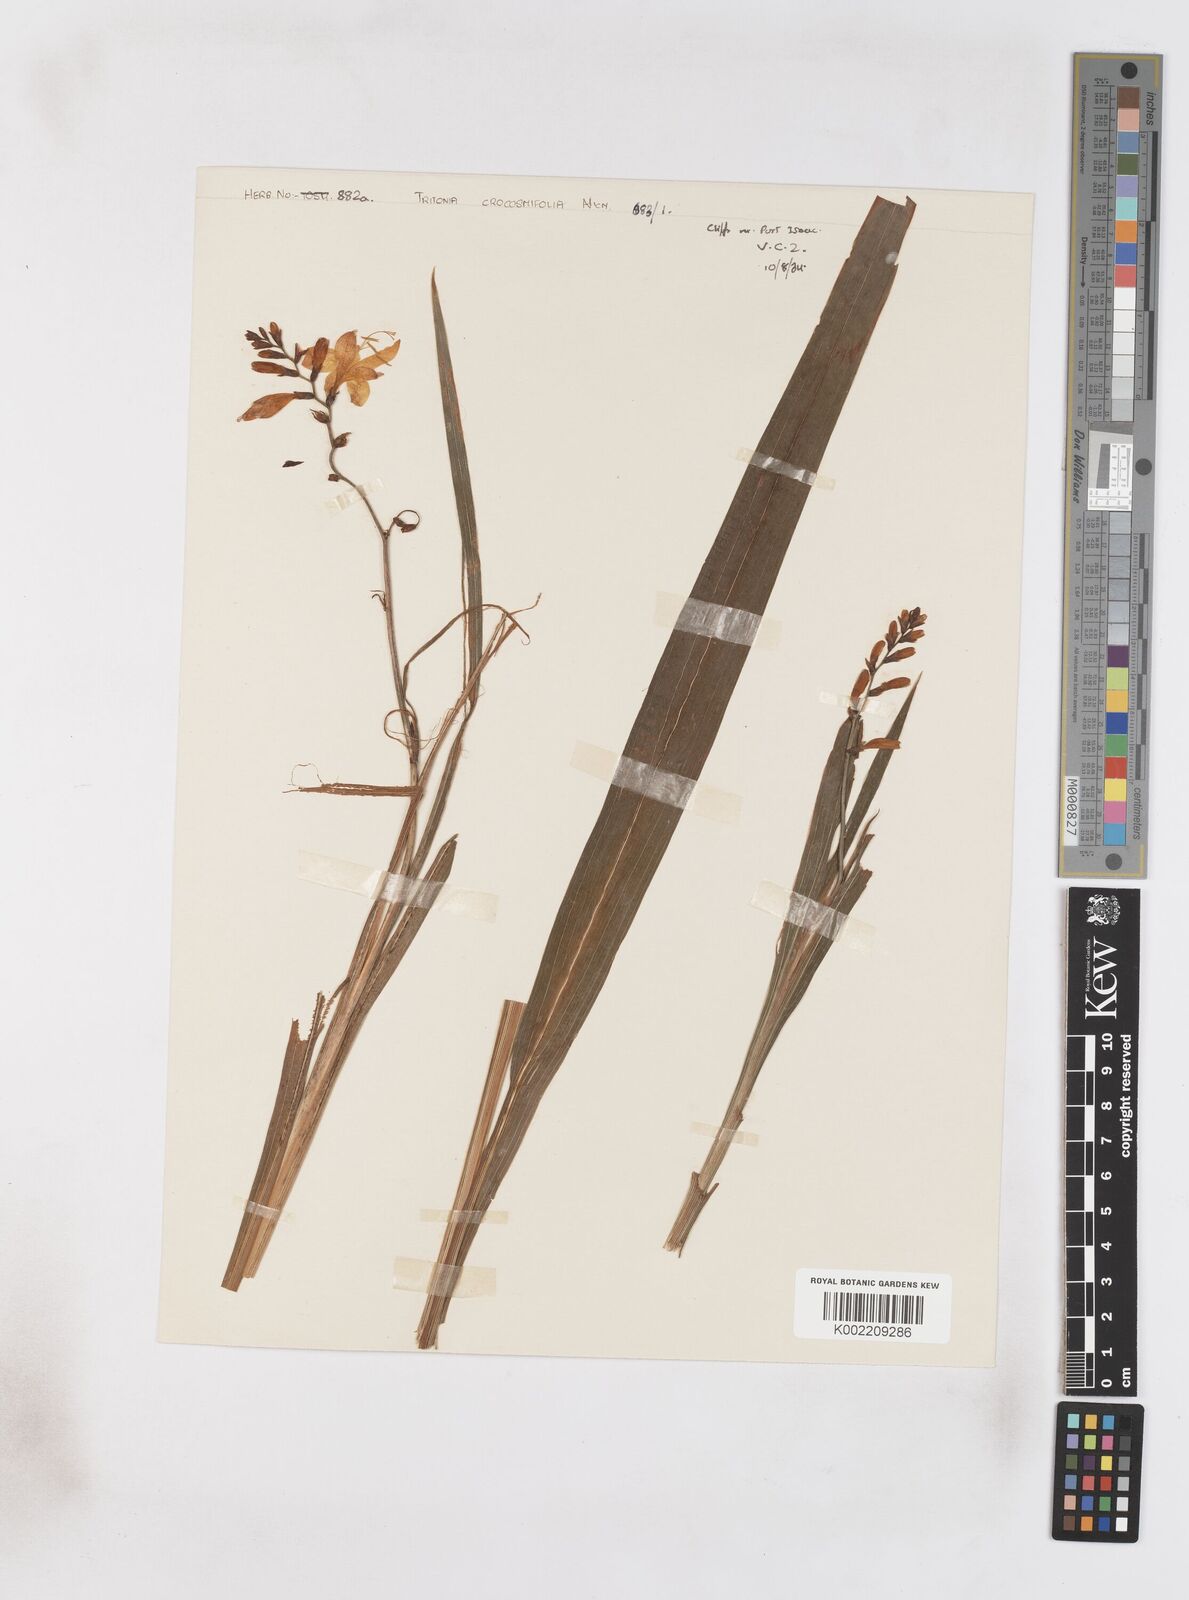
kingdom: Plantae
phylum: Tracheophyta
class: Liliopsida
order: Asparagales
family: Iridaceae
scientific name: Iridaceae
